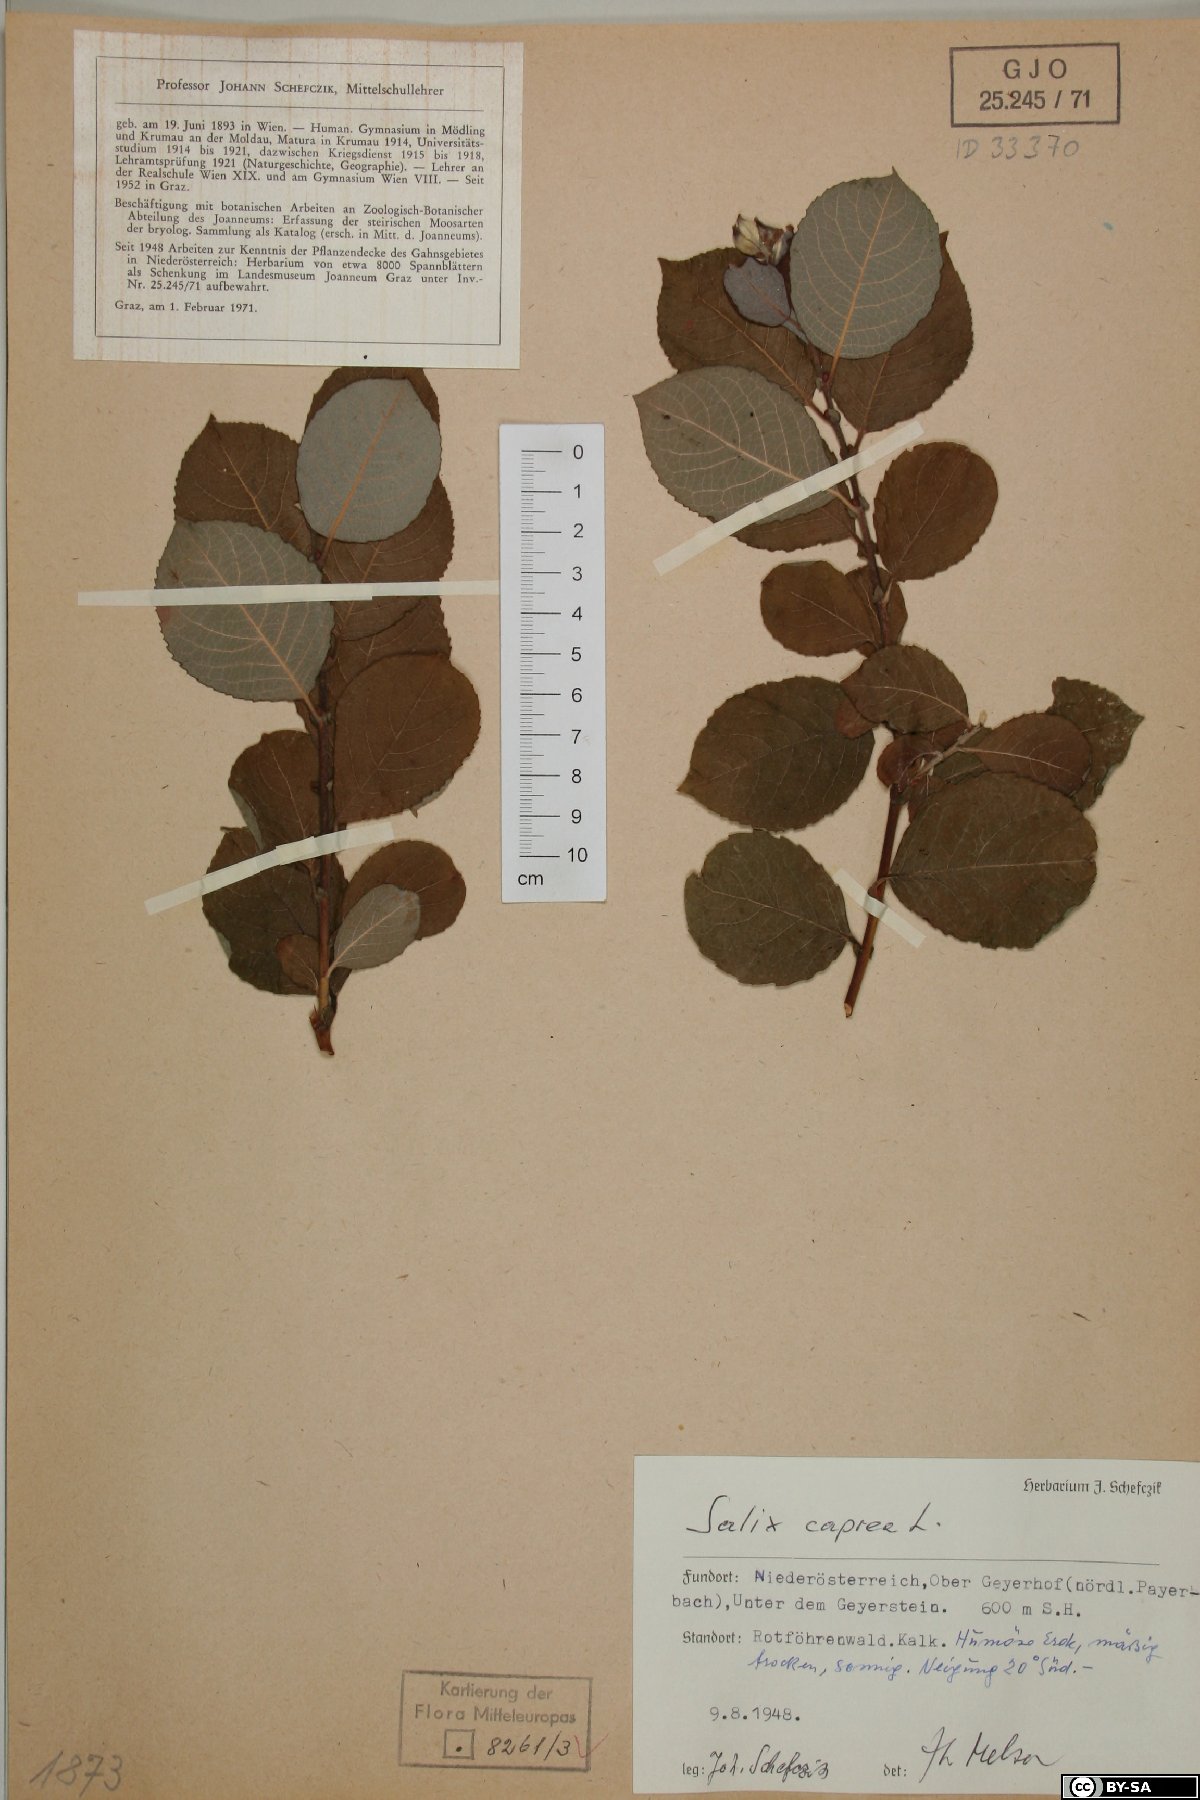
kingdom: Plantae
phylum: Tracheophyta
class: Magnoliopsida
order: Malpighiales
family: Salicaceae
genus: Salix
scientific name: Salix caprea
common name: Goat willow
